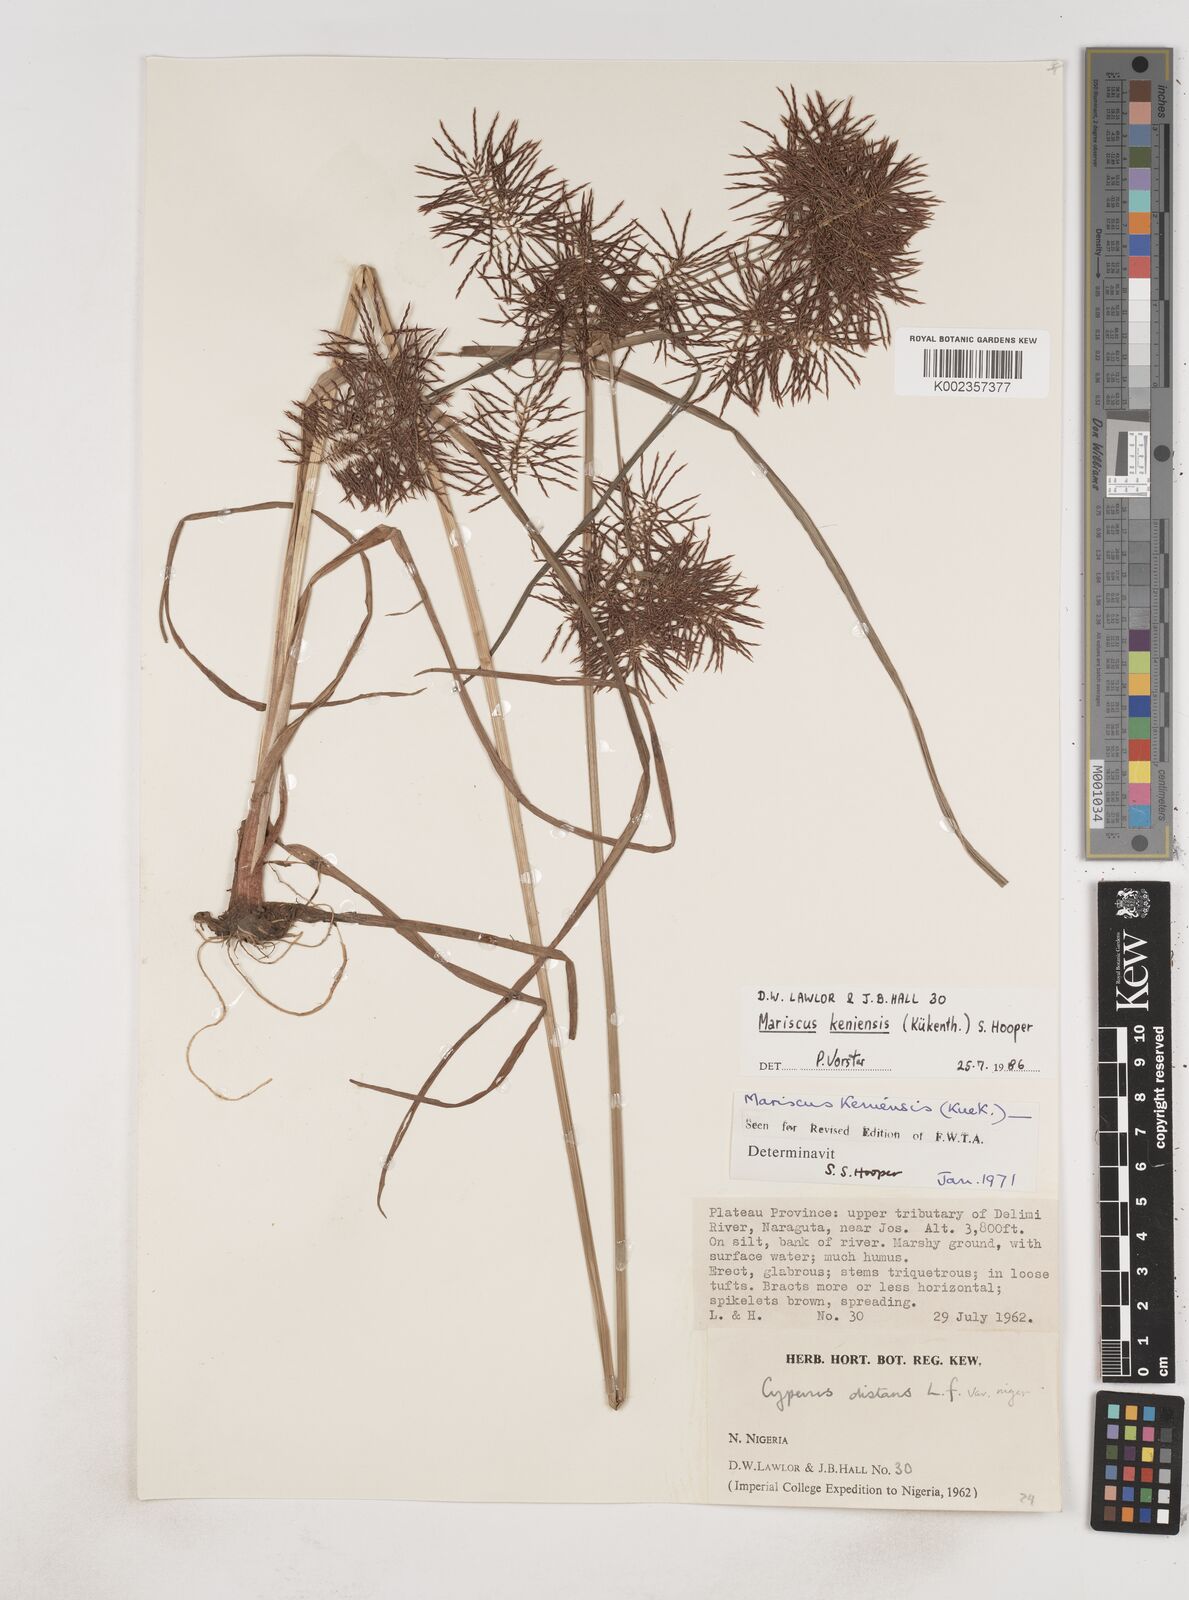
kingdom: Plantae
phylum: Tracheophyta
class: Liliopsida
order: Poales
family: Cyperaceae
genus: Cyperus
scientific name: Cyperus distans
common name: Slender cyperus
